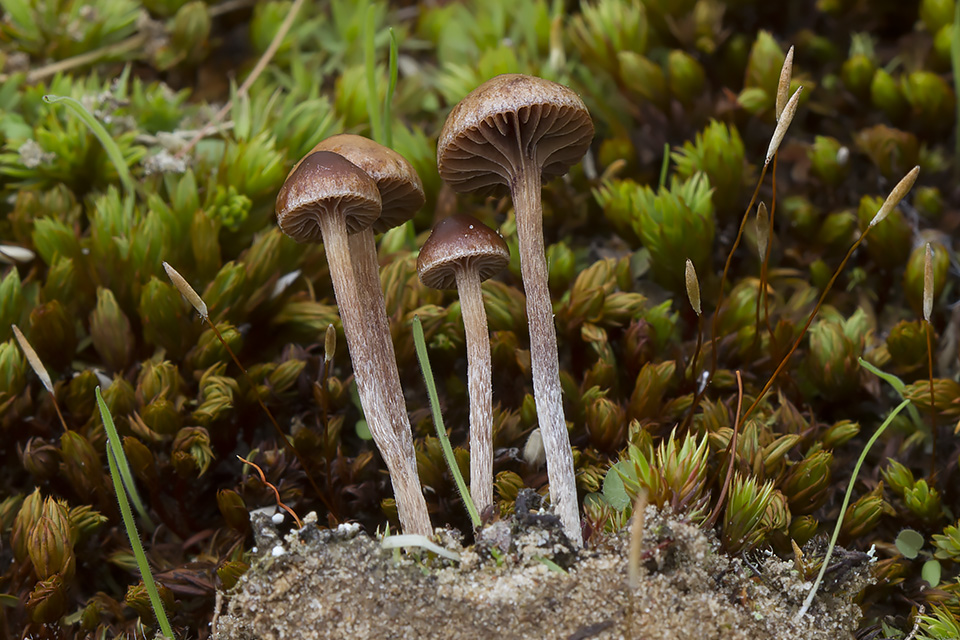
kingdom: Fungi
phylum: Basidiomycota
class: Agaricomycetes
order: Agaricales
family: Strophariaceae
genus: Deconica
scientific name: Deconica montana
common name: rødbrun stråhat
